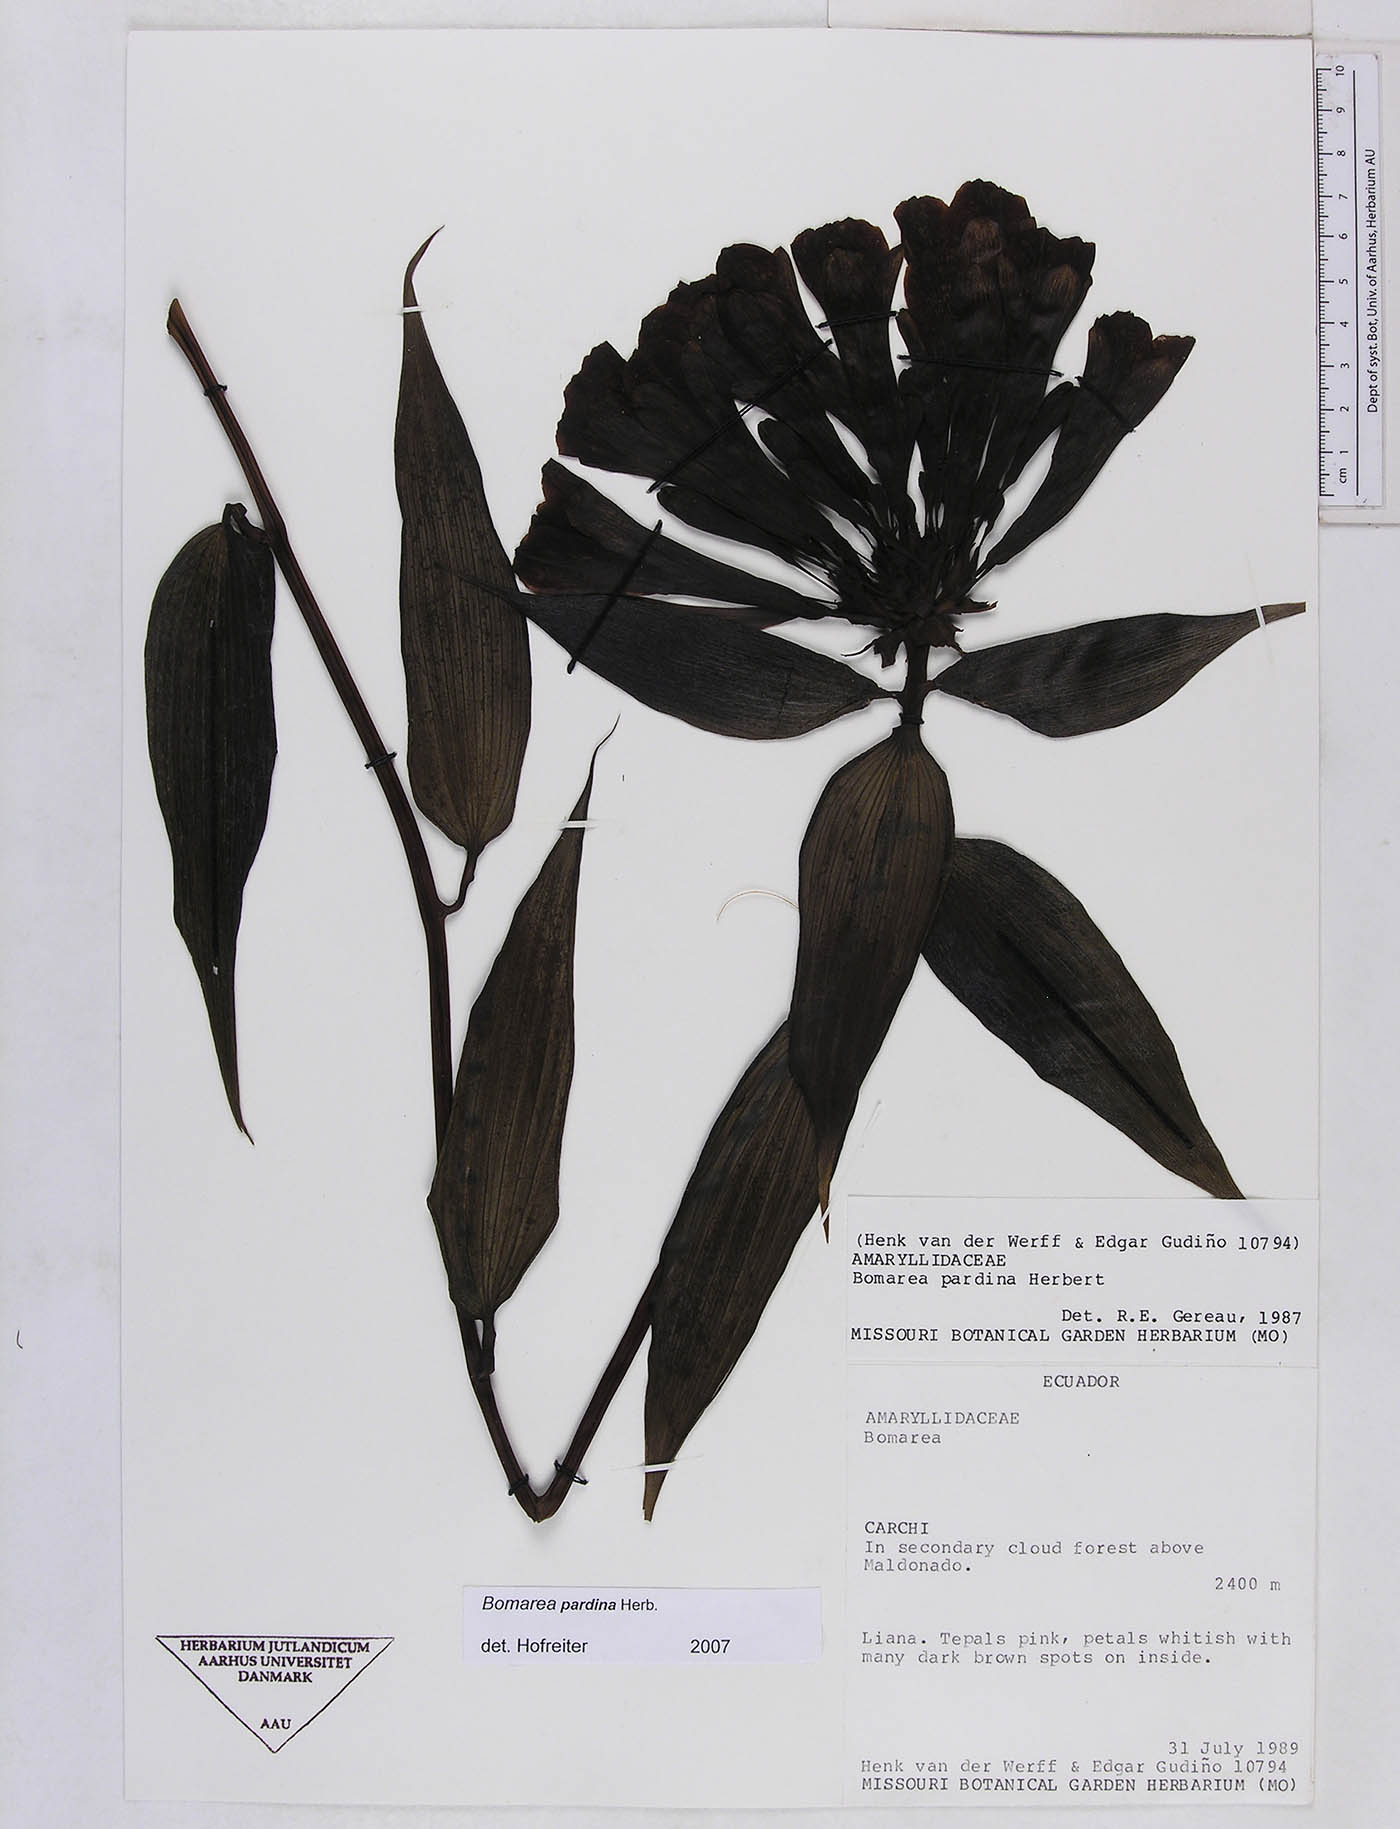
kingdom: Plantae
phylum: Tracheophyta
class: Liliopsida
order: Liliales
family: Alstroemeriaceae
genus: Bomarea
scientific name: Bomarea pardina
